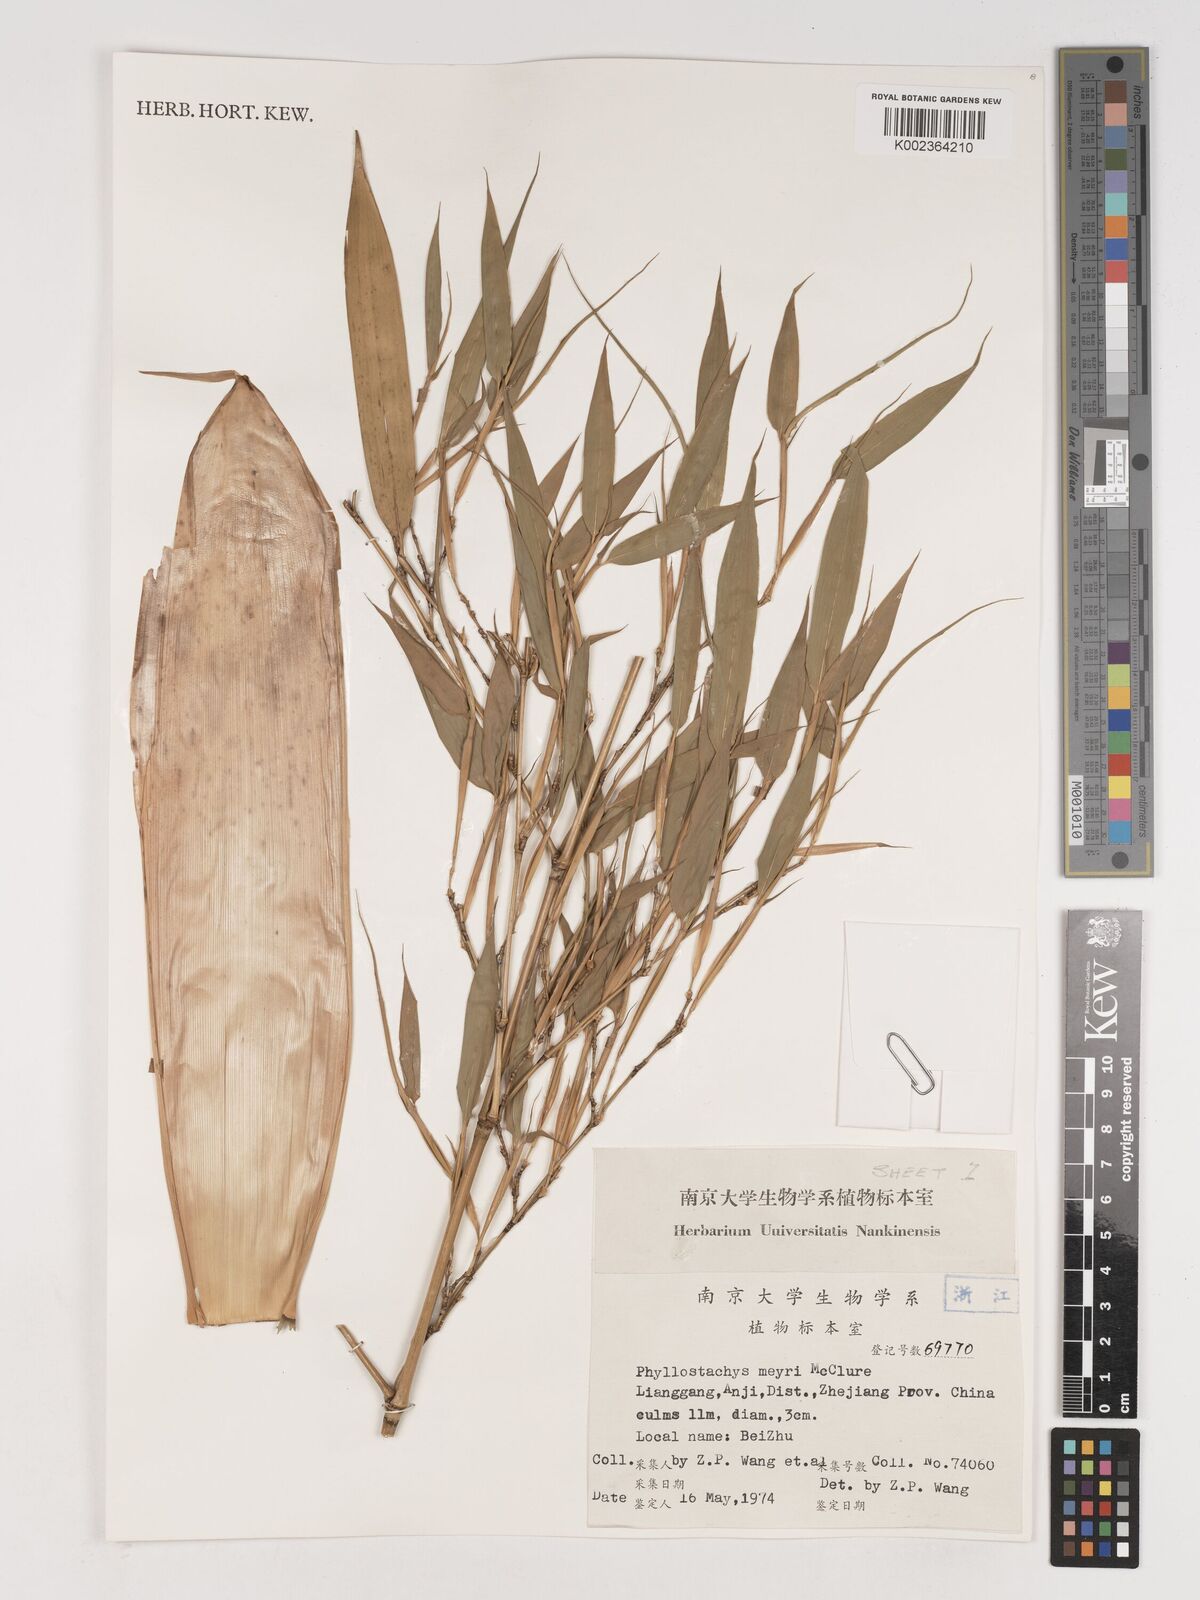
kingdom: Plantae
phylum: Tracheophyta
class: Liliopsida
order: Poales
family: Poaceae
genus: Phyllostachys
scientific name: Phyllostachys meyeri
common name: Meyer's bamboo
